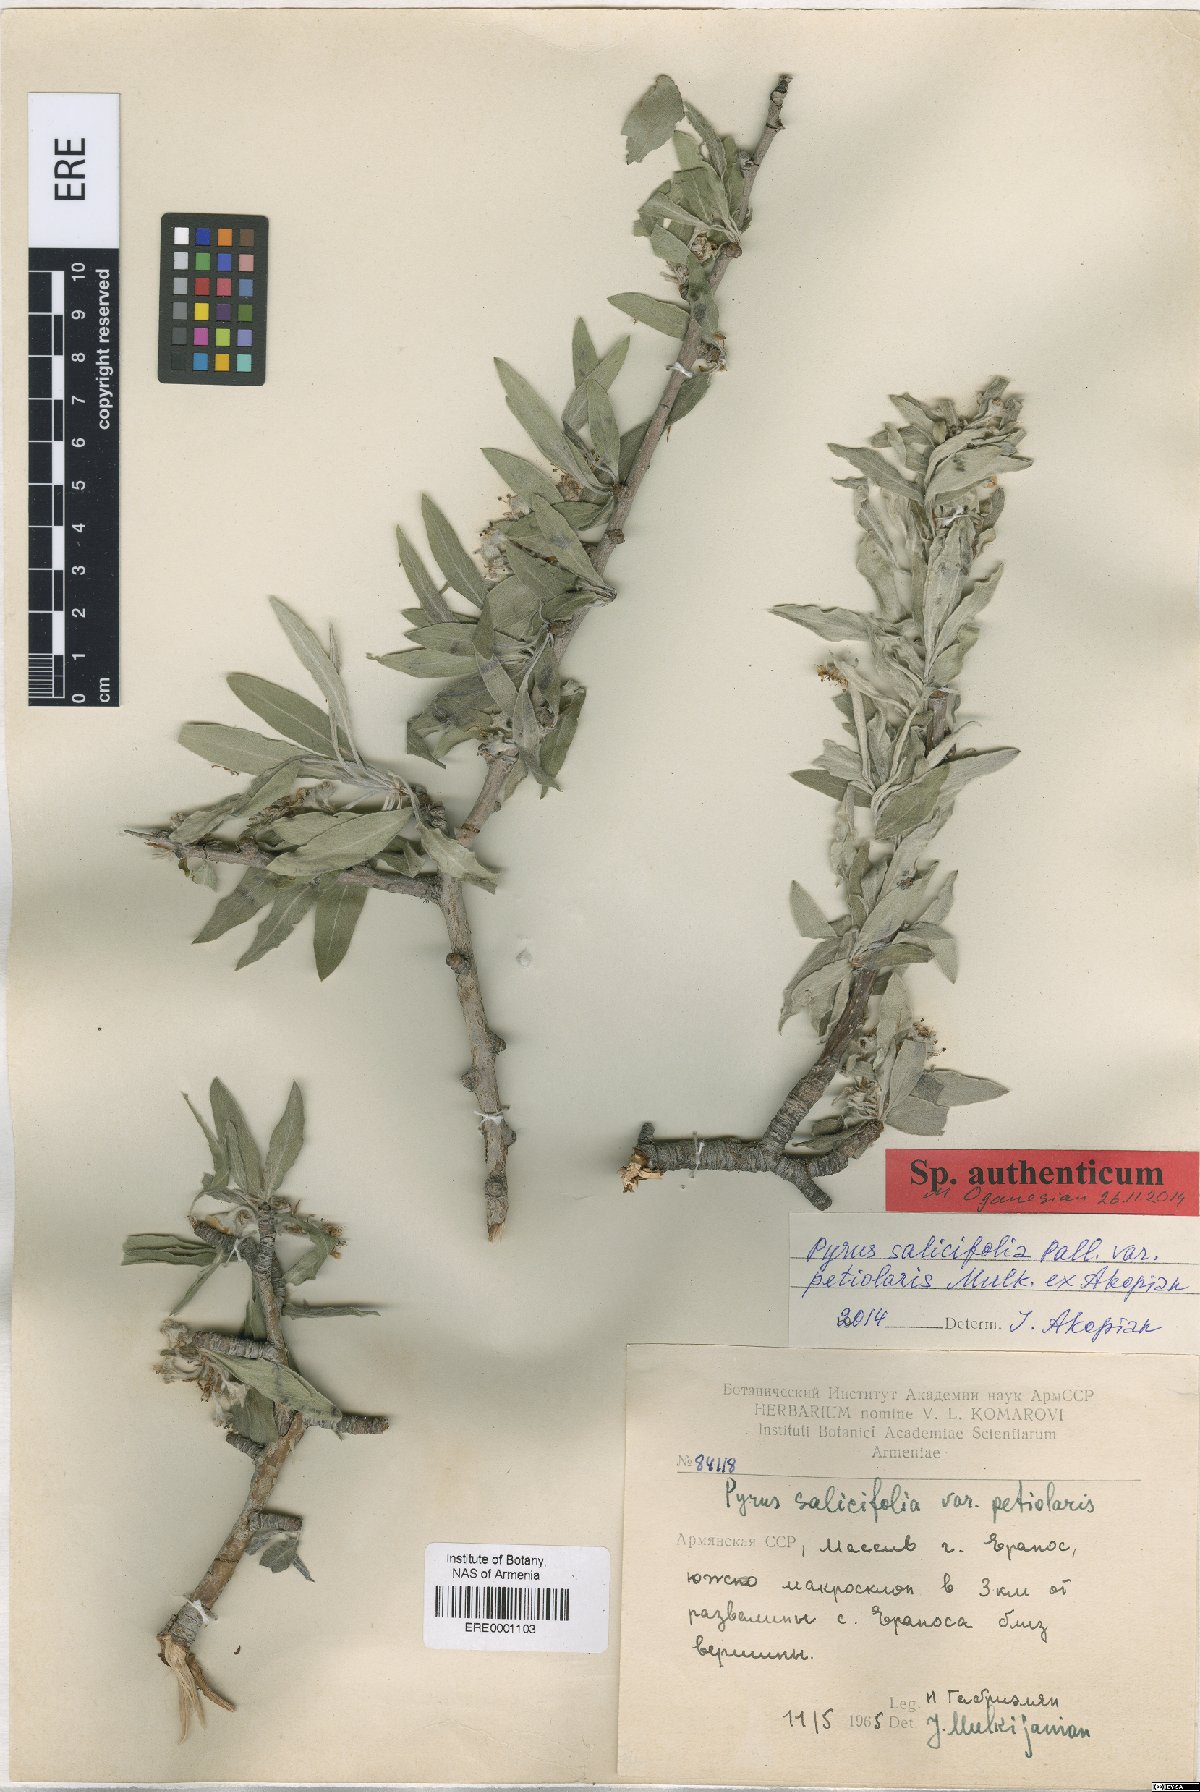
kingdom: Plantae
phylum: Tracheophyta
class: Magnoliopsida
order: Rosales
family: Rosaceae
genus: Pyrus
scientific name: Pyrus salicifolia
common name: Willow-leaved pear
